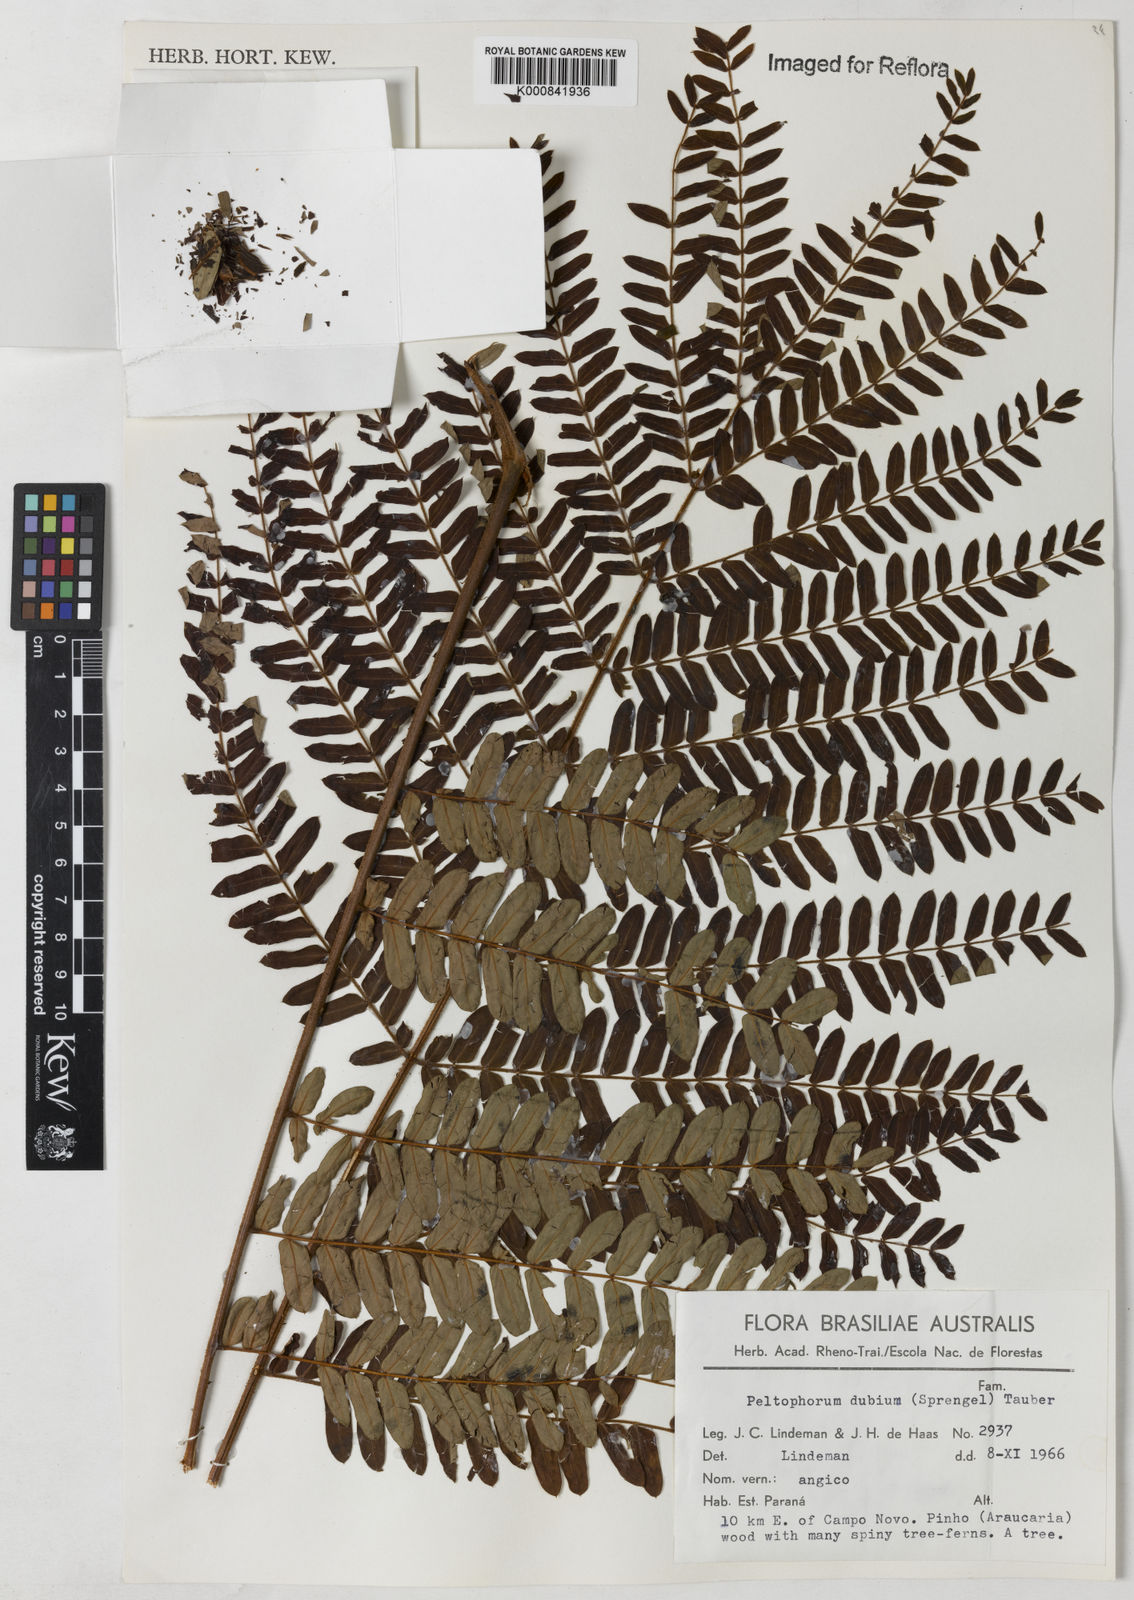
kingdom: Plantae
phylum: Tracheophyta
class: Magnoliopsida
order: Fabales
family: Fabaceae
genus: Peltophorum
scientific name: Peltophorum dubium
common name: Horsebush
